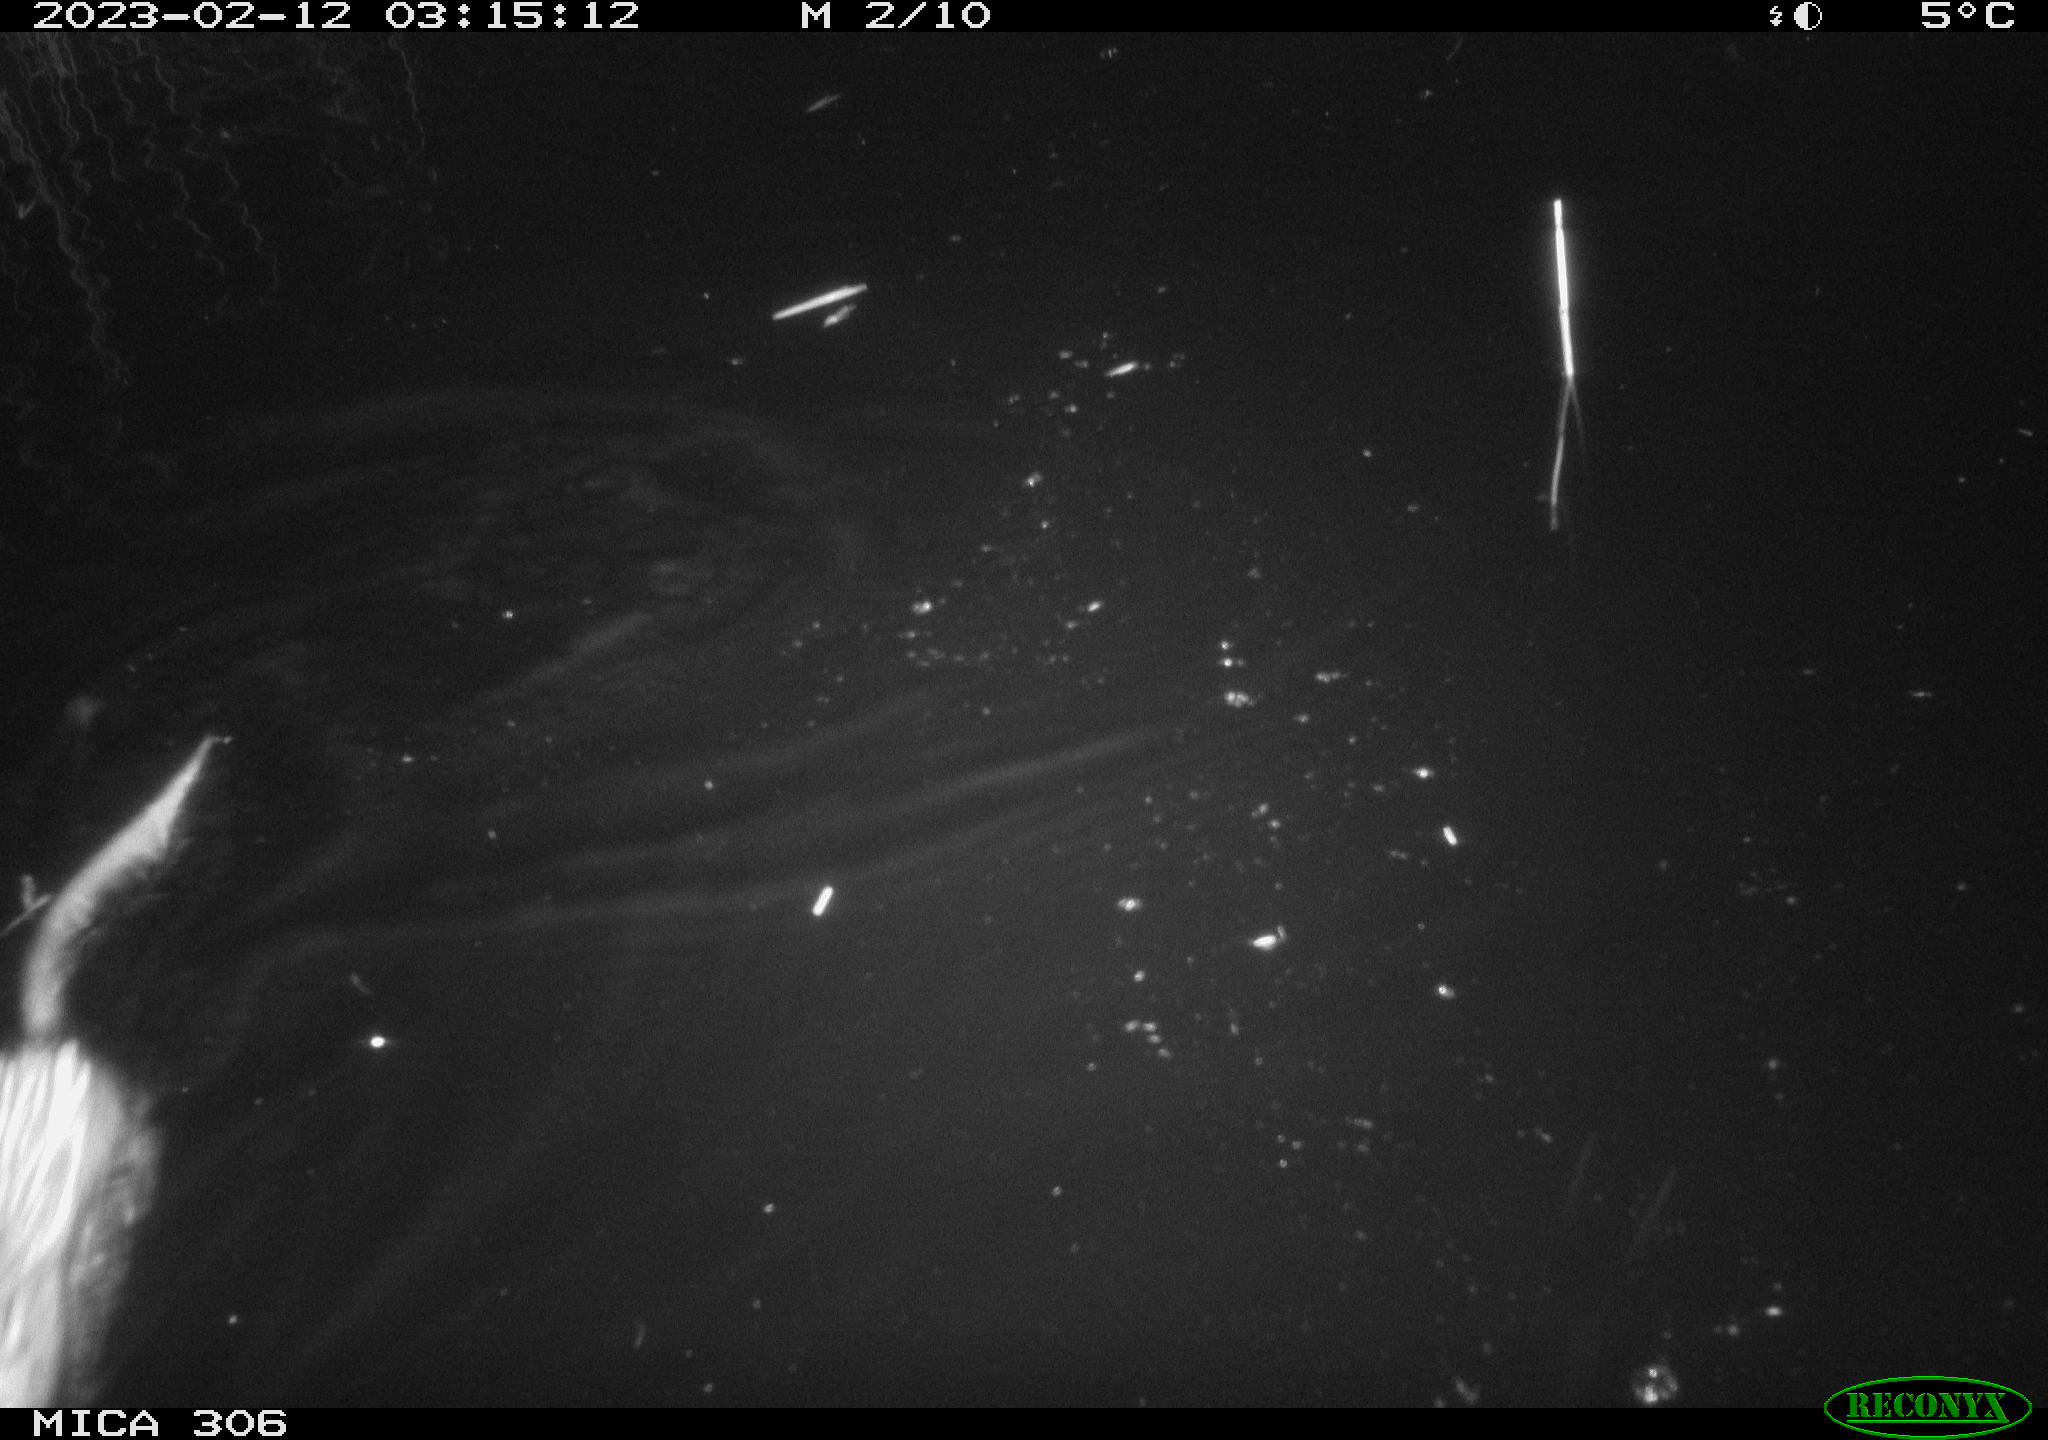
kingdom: Animalia
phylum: Chordata
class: Mammalia
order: Rodentia
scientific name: Rodentia
